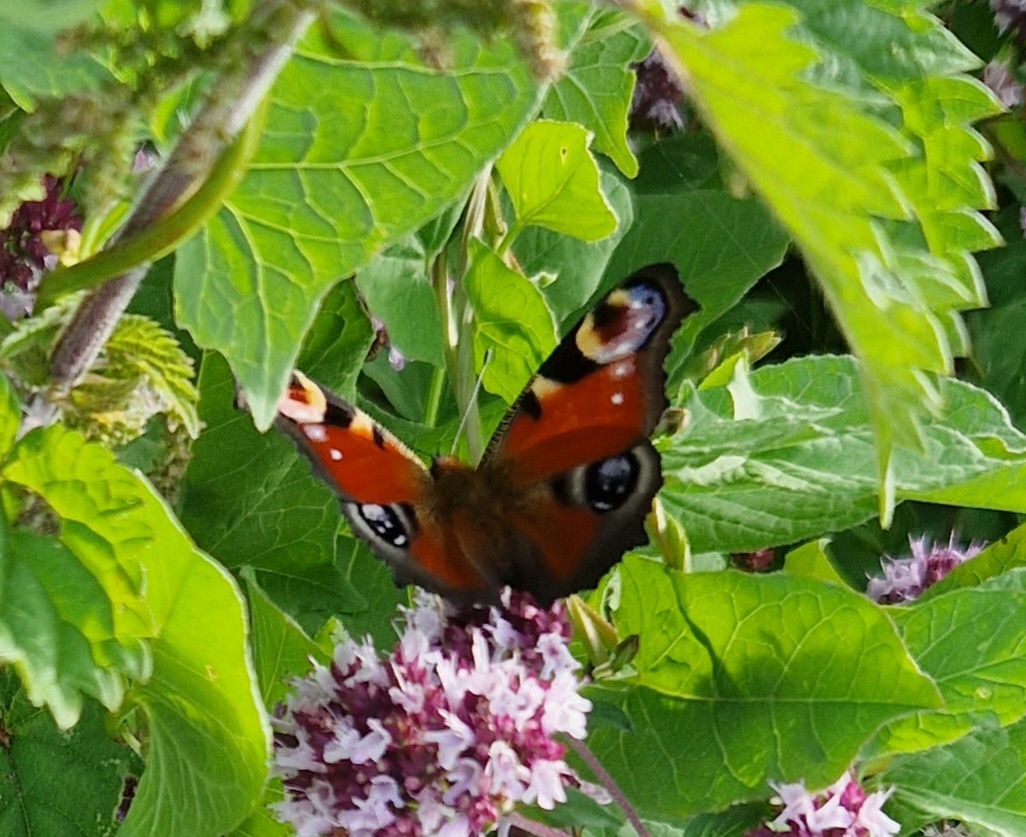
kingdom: Animalia
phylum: Arthropoda
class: Insecta
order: Lepidoptera
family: Nymphalidae
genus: Aglais
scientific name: Aglais io
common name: Dagpåfugleøje
